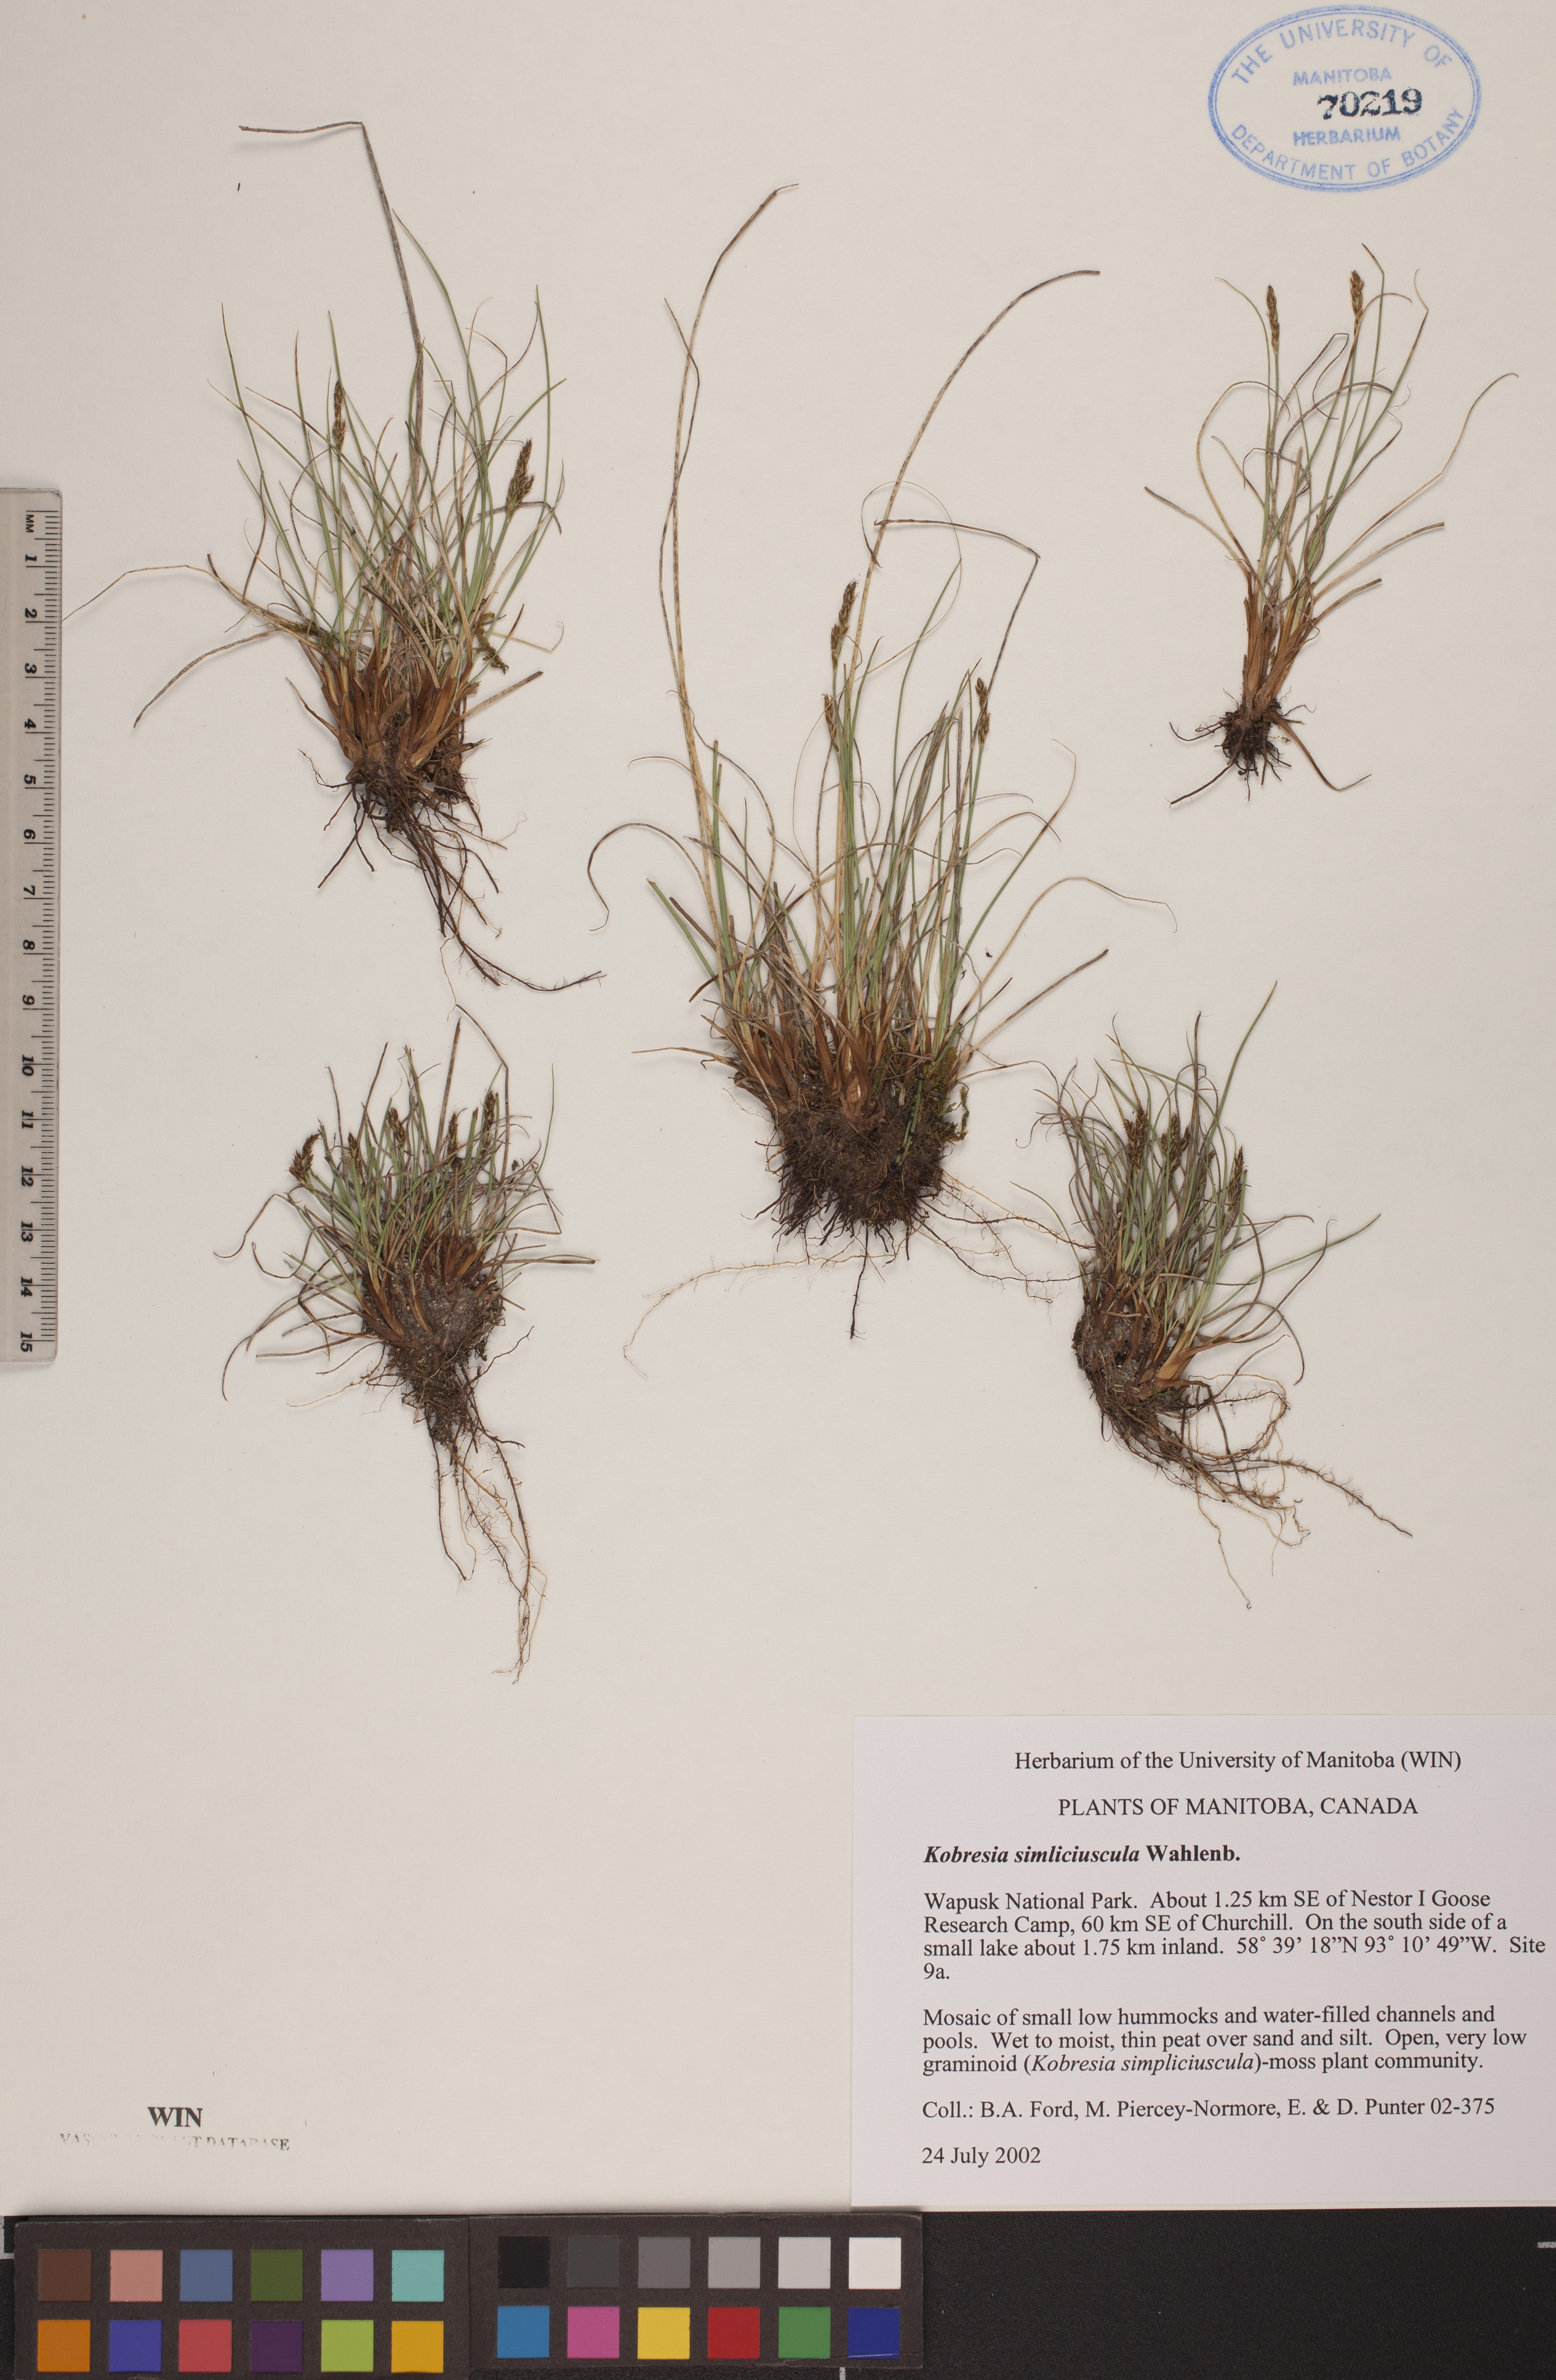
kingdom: Plantae
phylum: Tracheophyta
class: Liliopsida
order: Poales
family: Cyperaceae
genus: Carex
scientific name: Carex simpliciuscula
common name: Simple bog sedge
